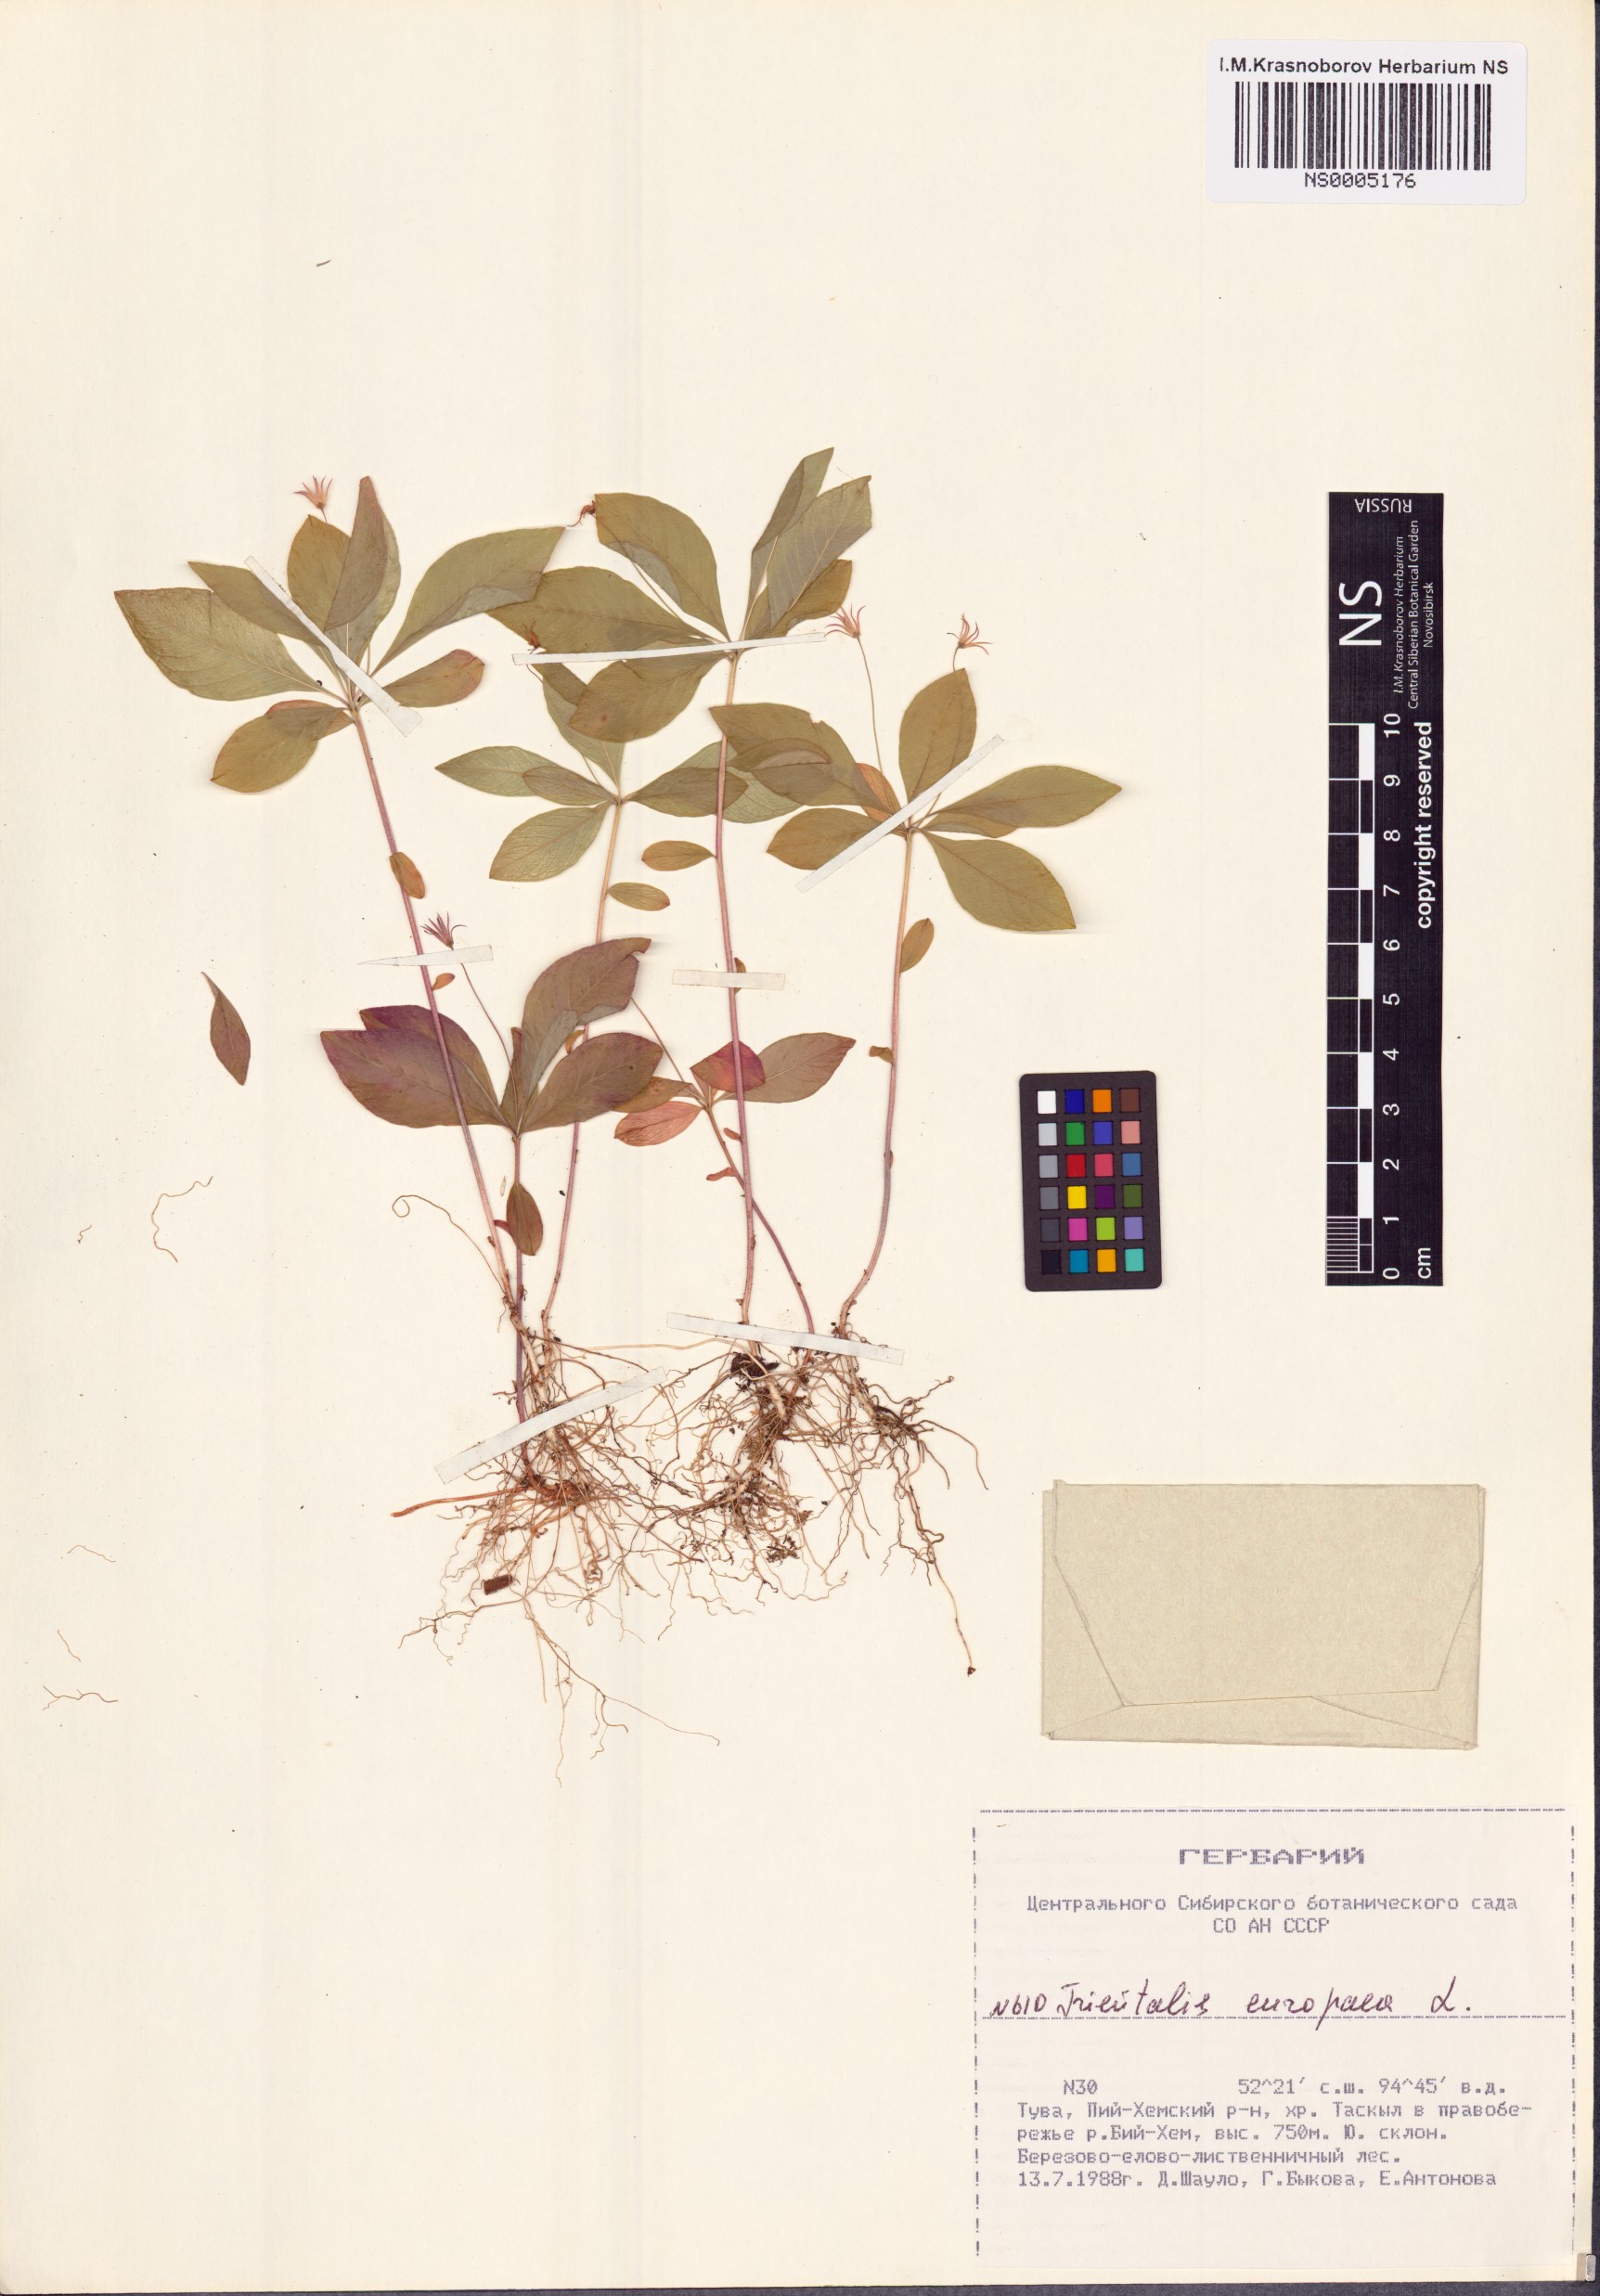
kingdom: Plantae
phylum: Tracheophyta
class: Magnoliopsida
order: Ericales
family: Primulaceae
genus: Lysimachia
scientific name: Lysimachia europaea
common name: Arctic starflower
